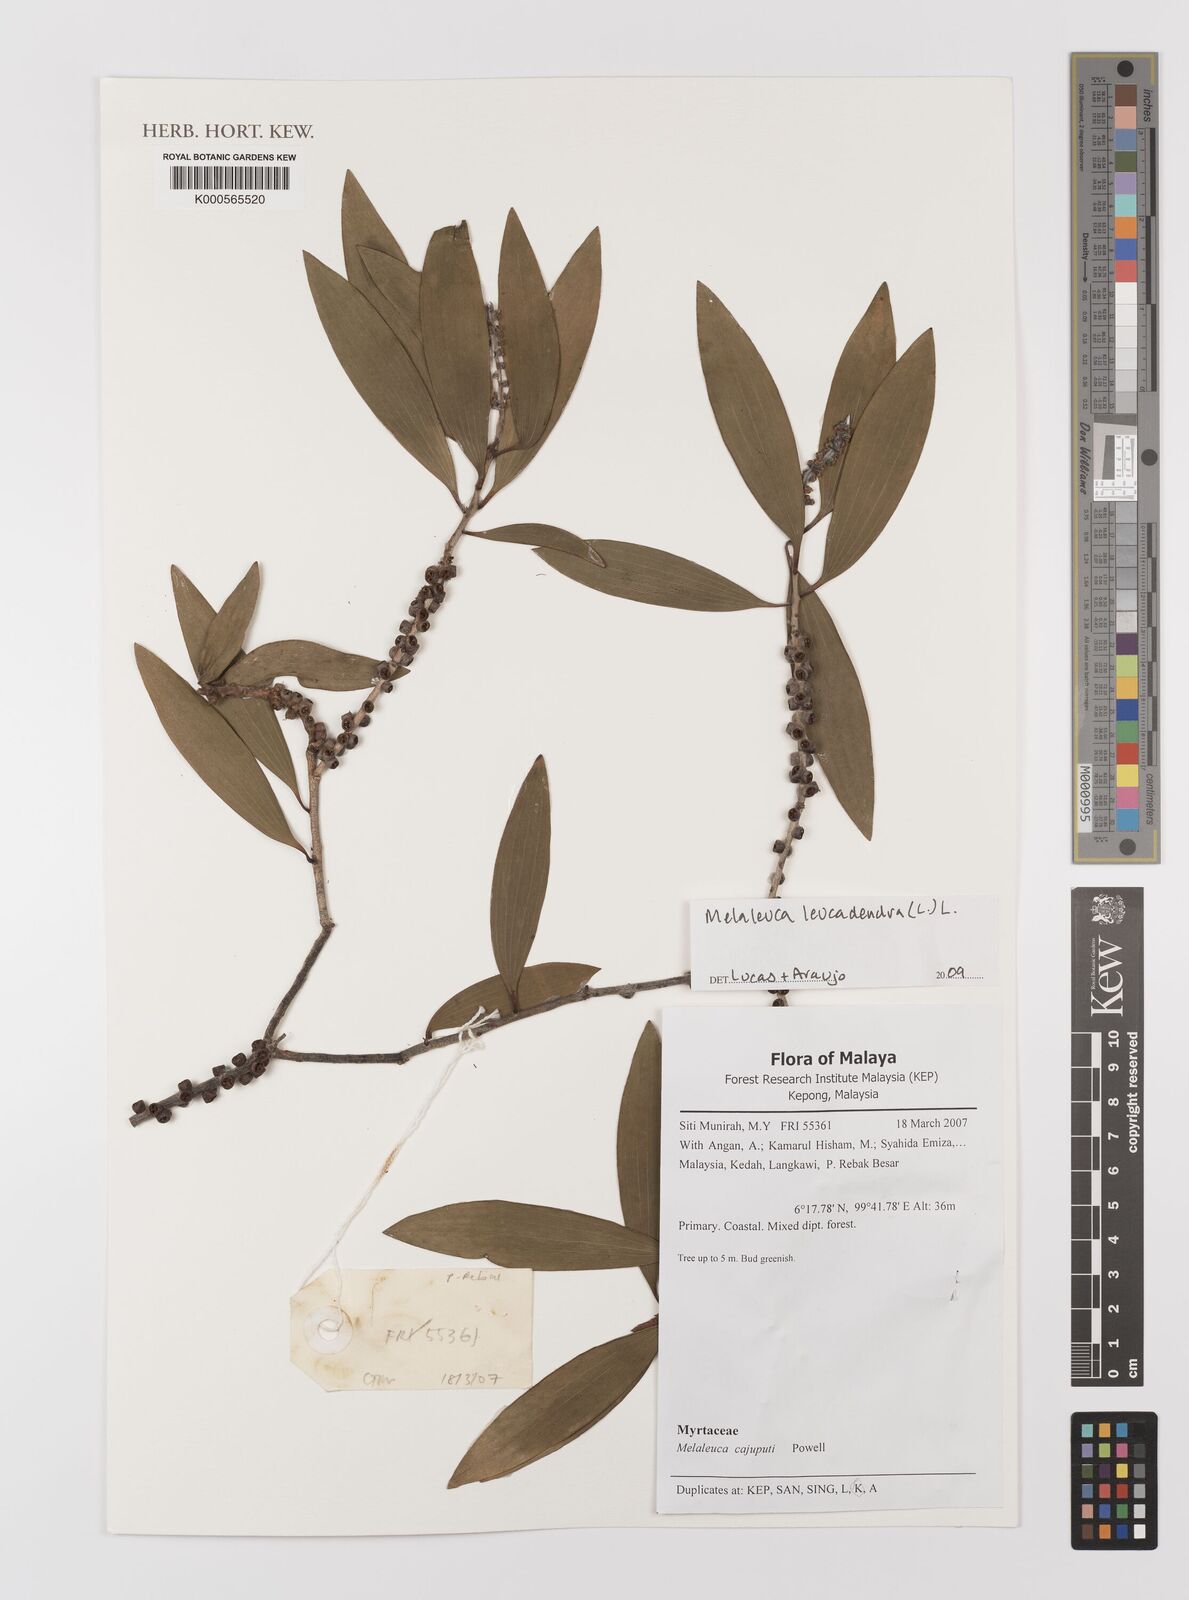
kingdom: Plantae
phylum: Tracheophyta
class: Magnoliopsida
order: Myrtales
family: Myrtaceae
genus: Melaleuca
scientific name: Melaleuca leucadendra
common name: Weeping paperbark
